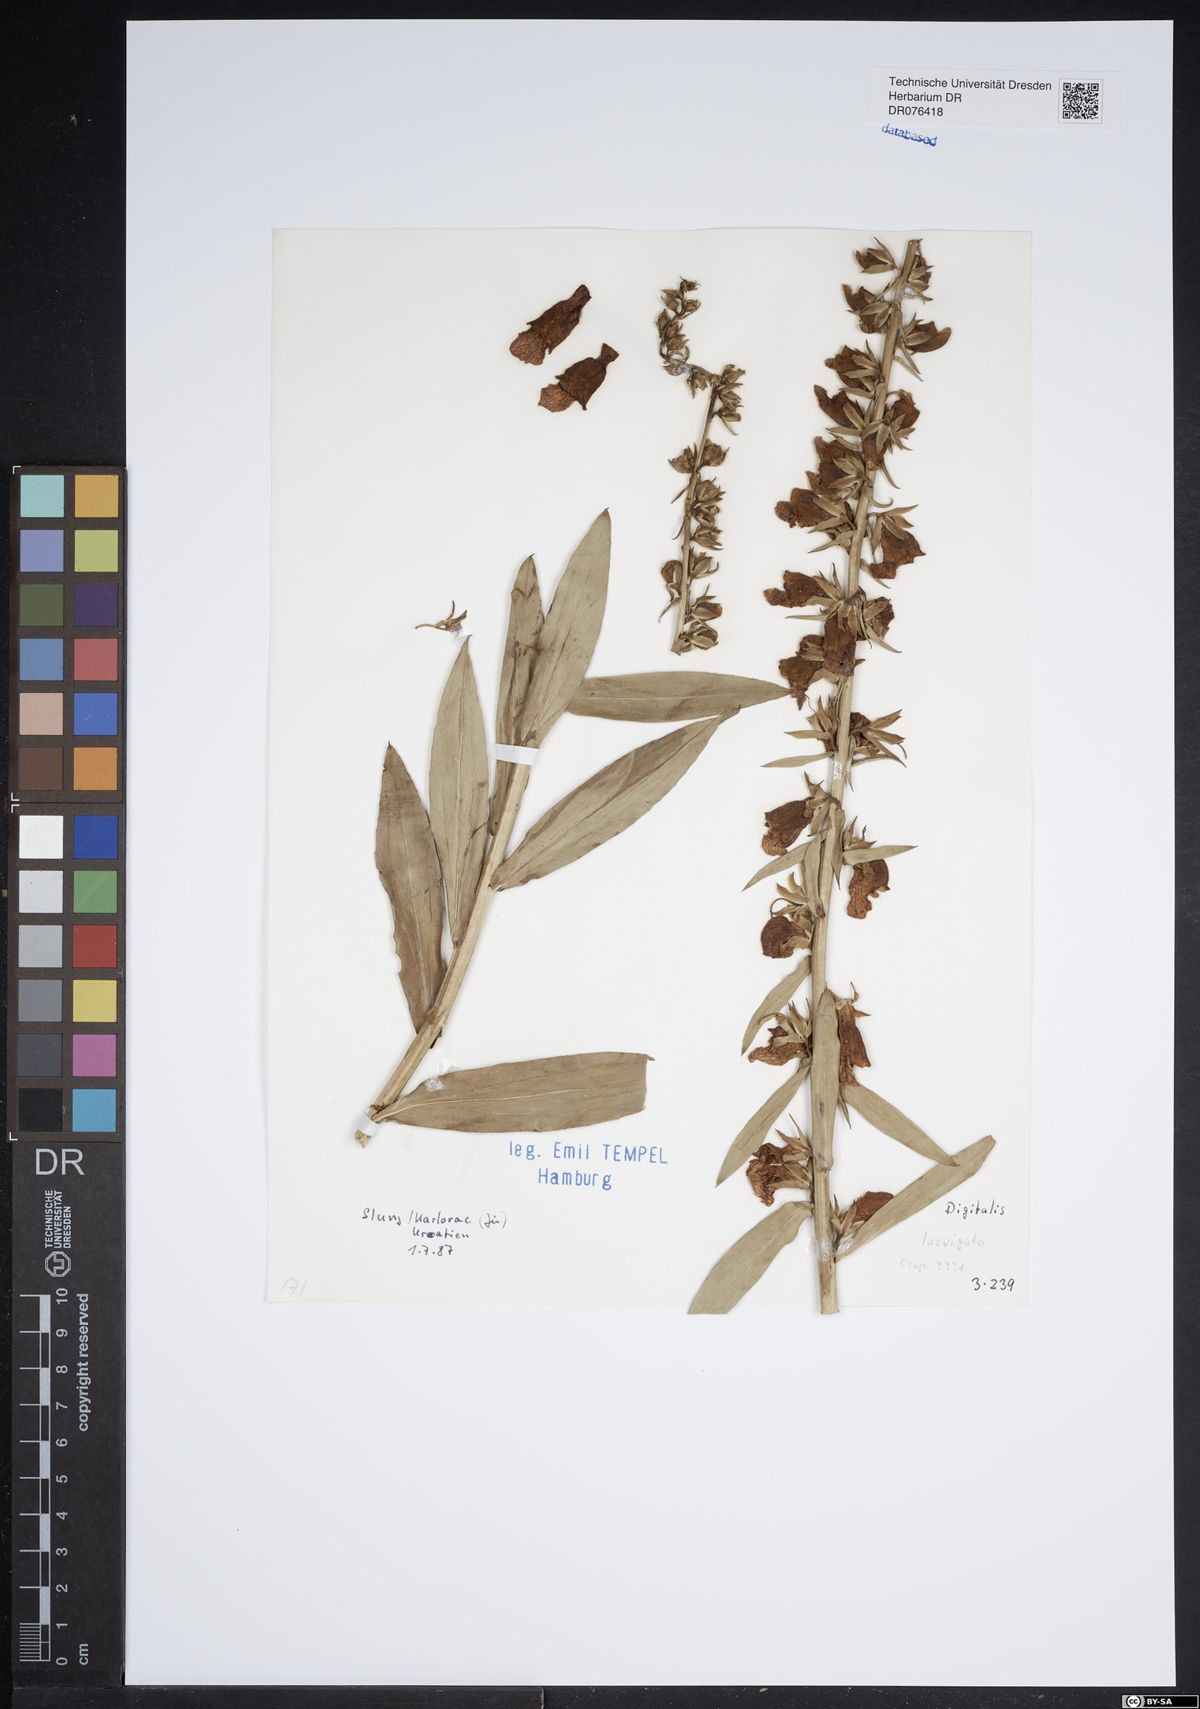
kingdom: Plantae
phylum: Tracheophyta
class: Magnoliopsida
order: Lamiales
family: Plantaginaceae
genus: Digitalis
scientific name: Digitalis laevigata
